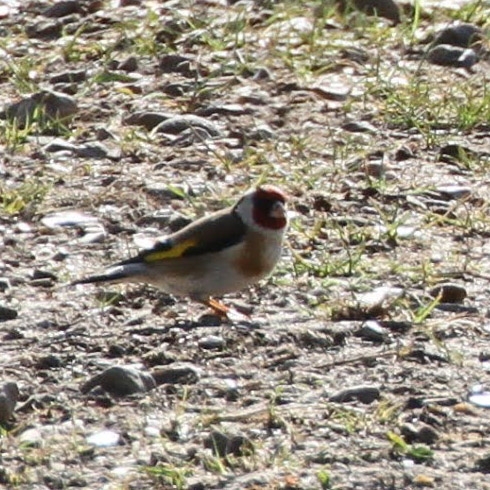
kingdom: Animalia
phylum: Chordata
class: Aves
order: Passeriformes
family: Fringillidae
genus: Carduelis
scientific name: Carduelis carduelis
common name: Stillits
